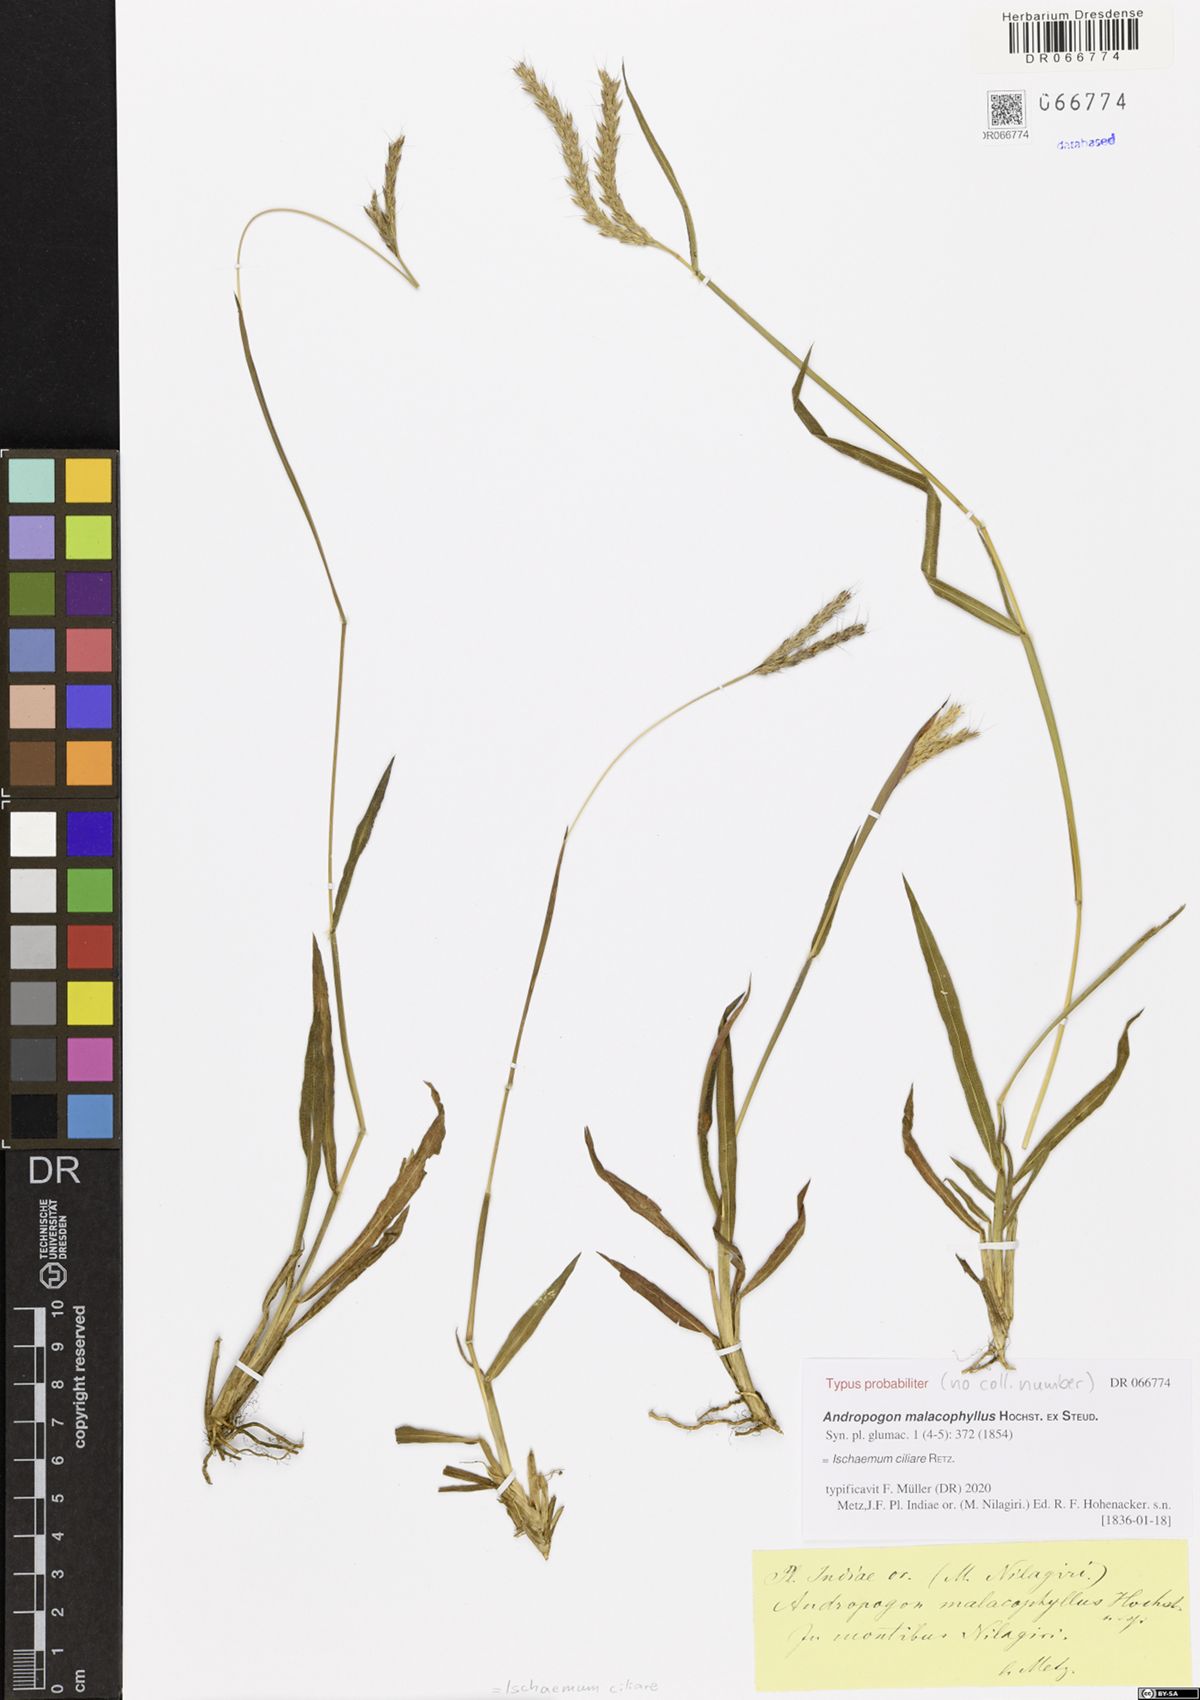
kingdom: Plantae
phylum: Tracheophyta
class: Liliopsida
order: Poales
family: Poaceae
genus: Ischaemum
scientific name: Ischaemum ciliare
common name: Grass
